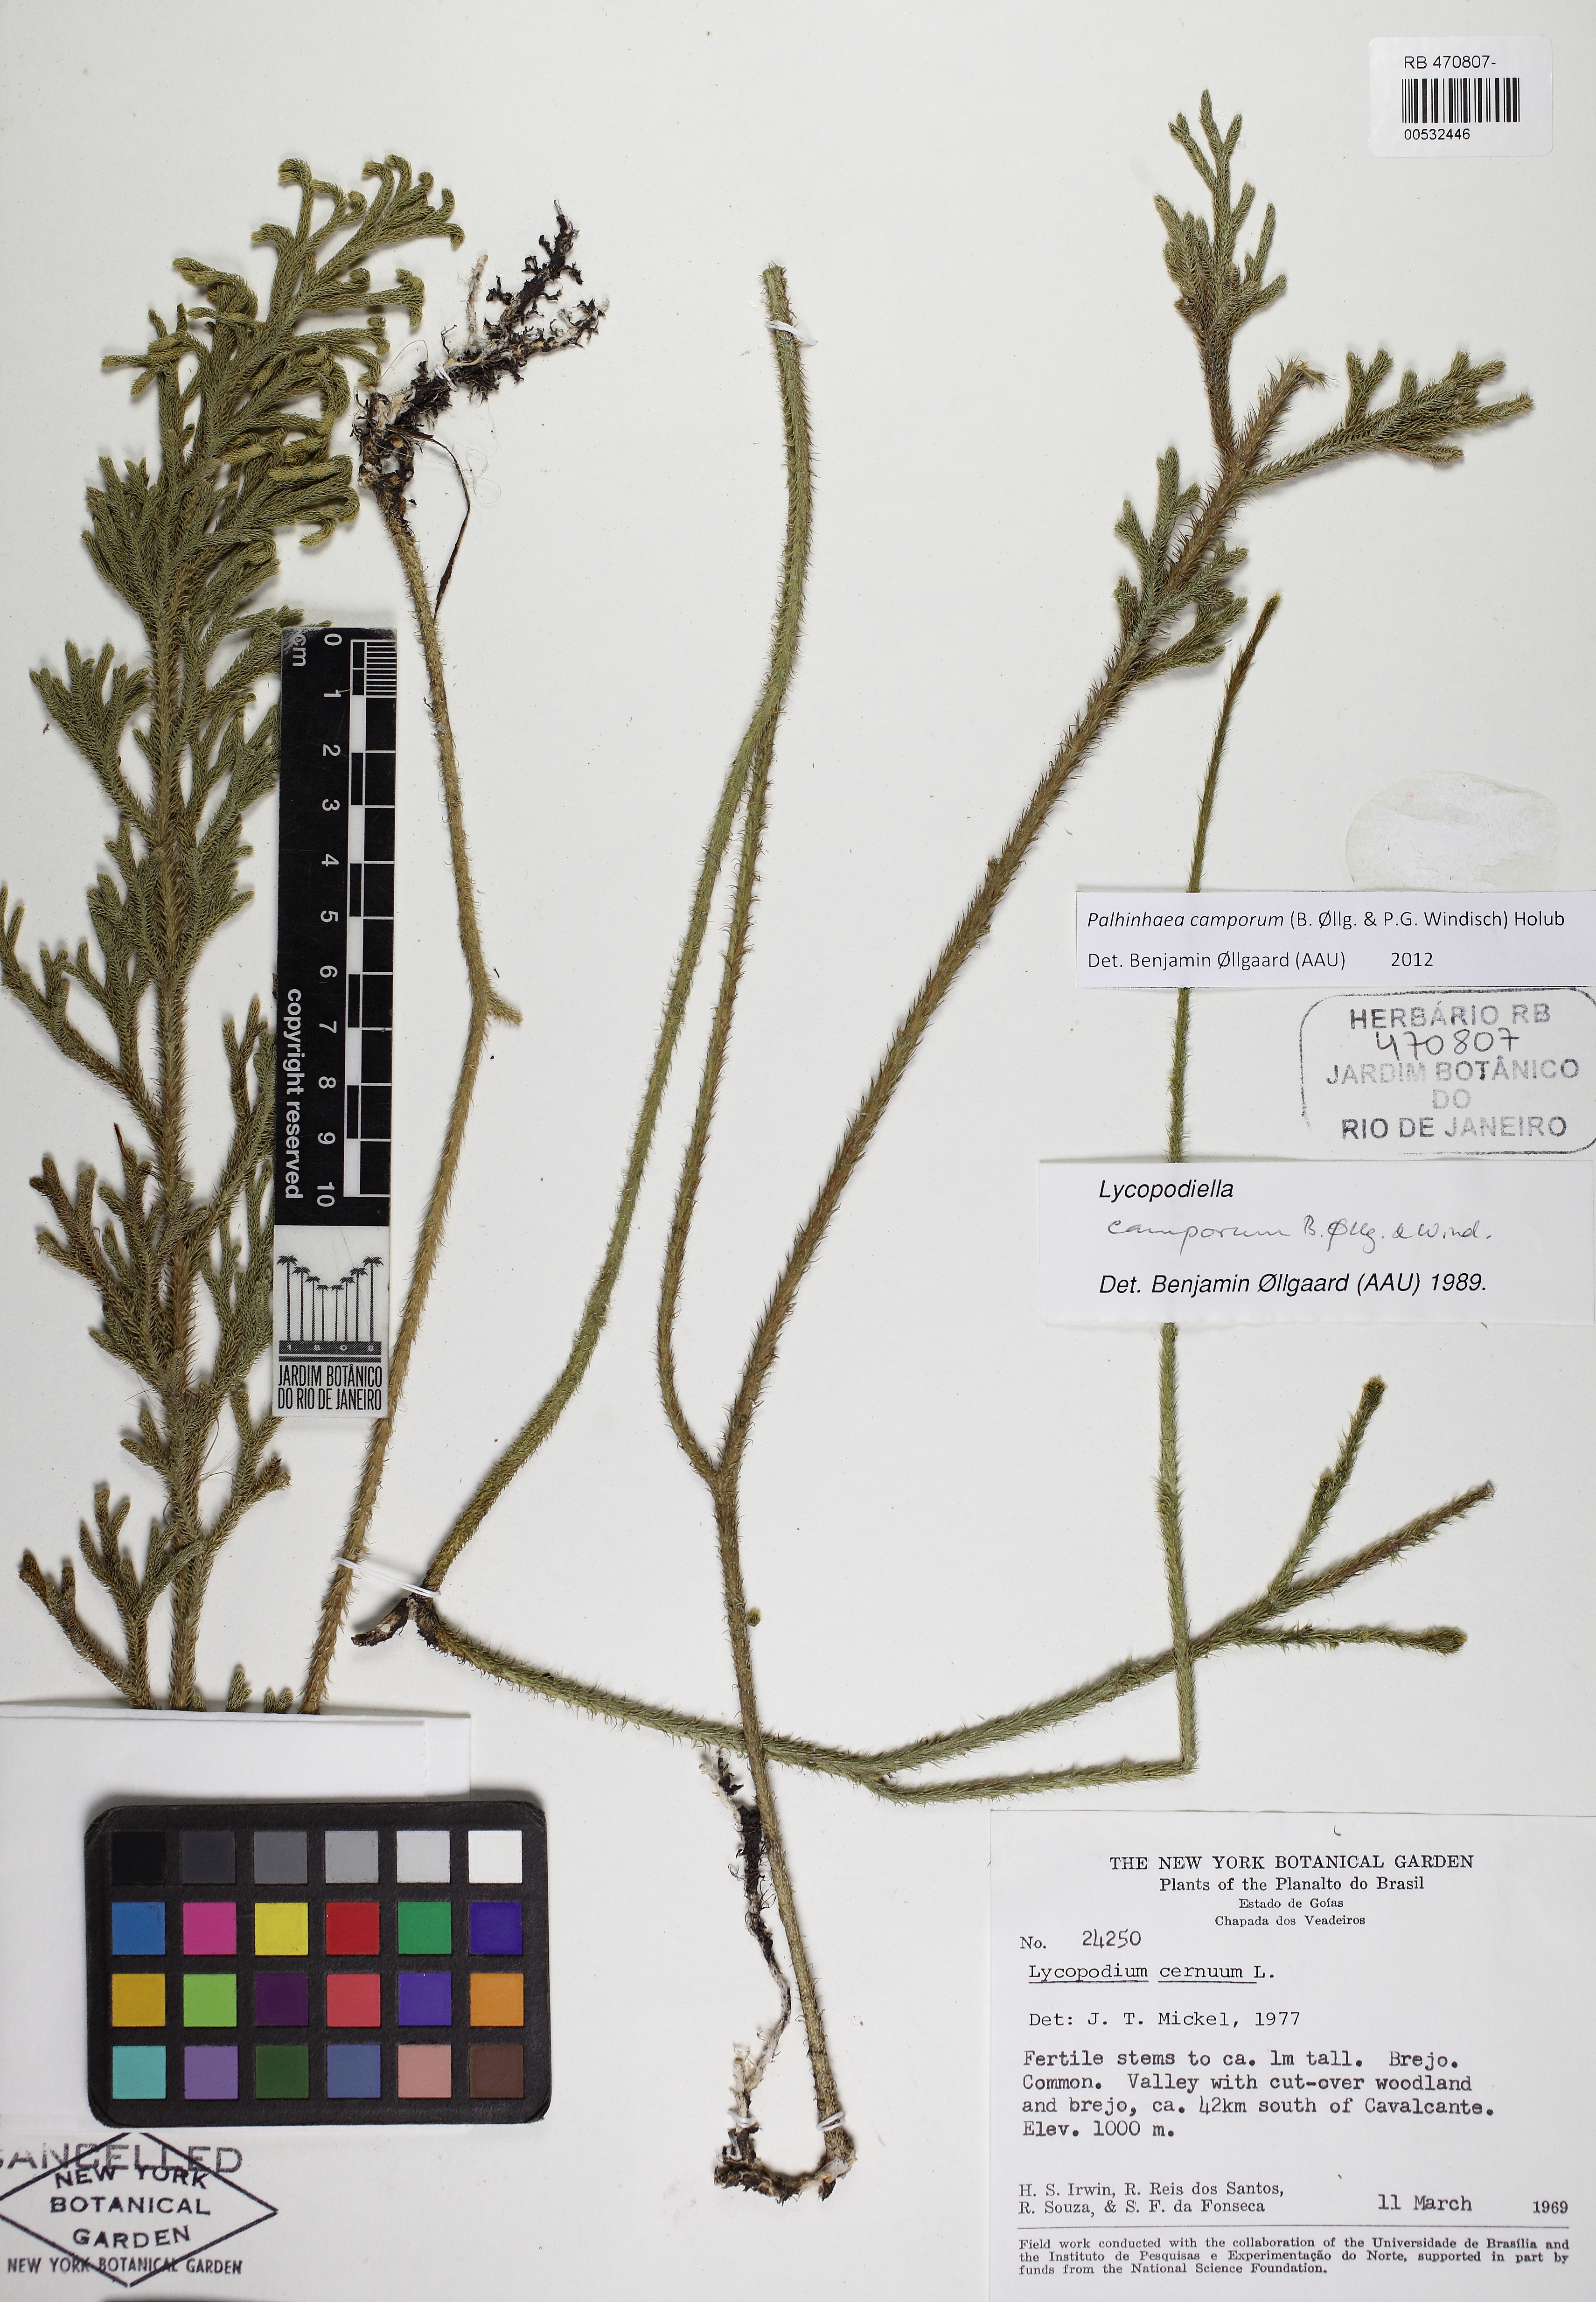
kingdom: Plantae
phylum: Tracheophyta
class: Lycopodiopsida
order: Lycopodiales
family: Lycopodiaceae
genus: Palhinhaea
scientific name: Palhinhaea camporum
